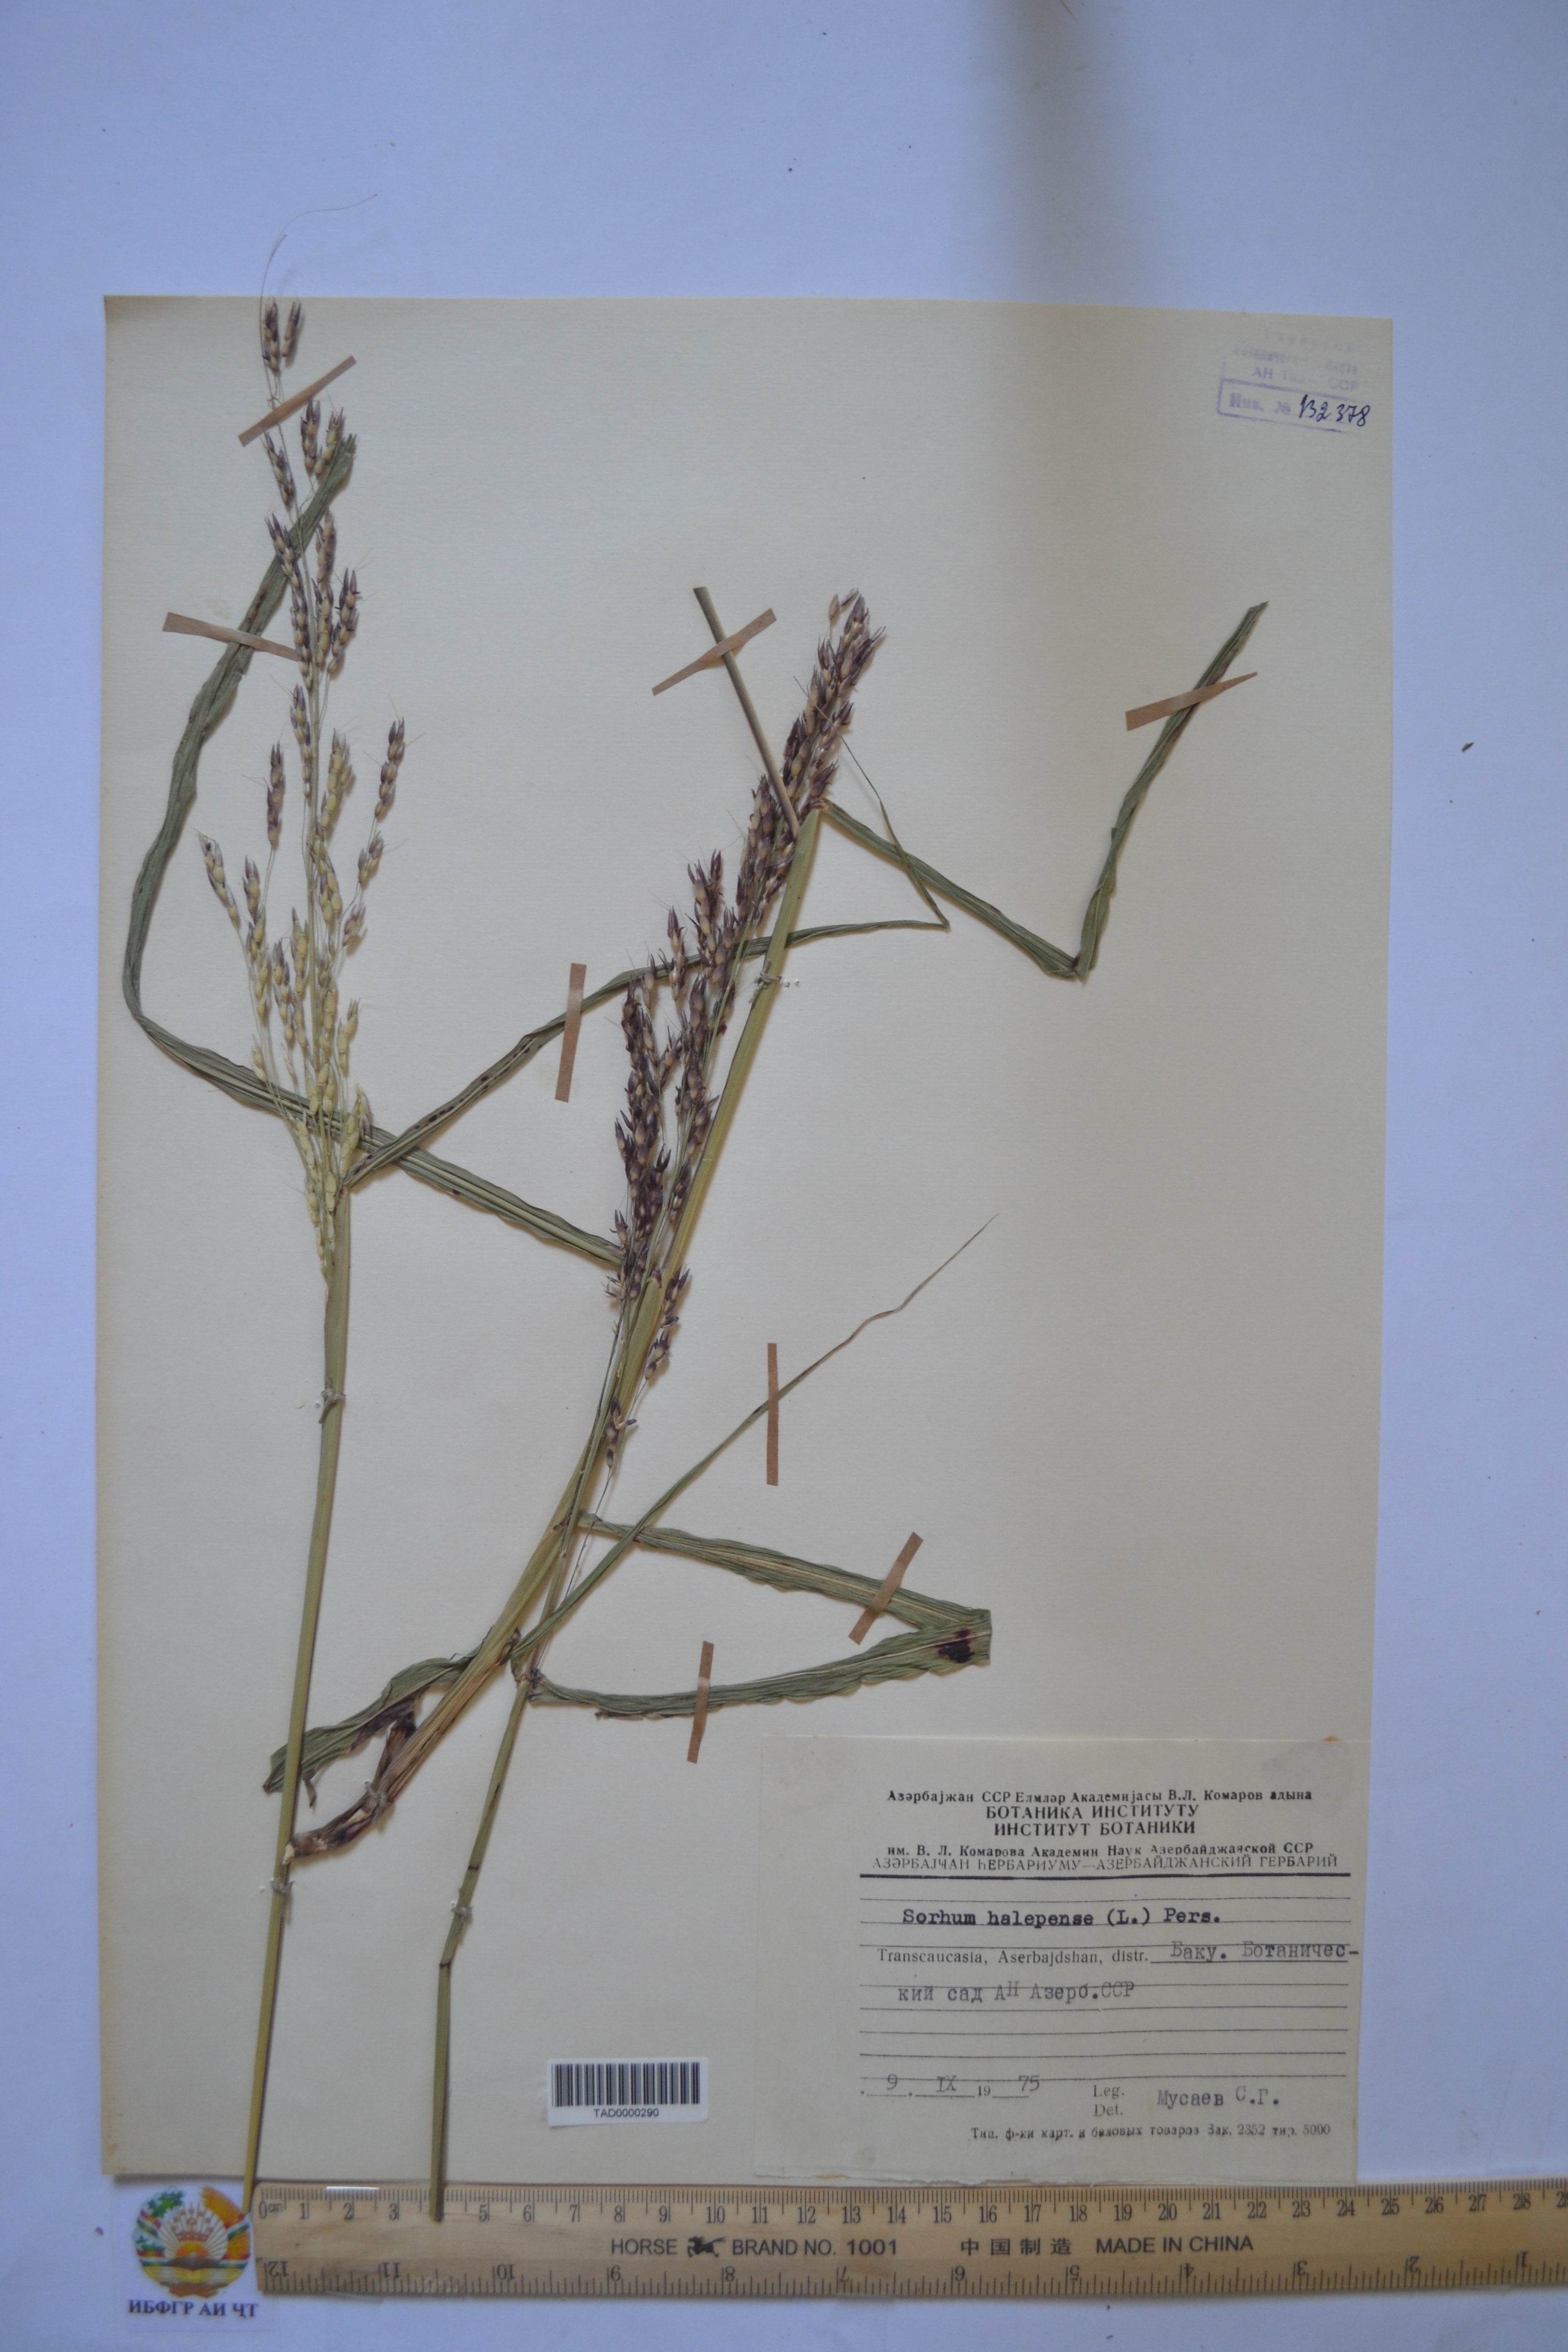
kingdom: Plantae
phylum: Tracheophyta
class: Liliopsida
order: Poales
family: Poaceae
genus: Sorghum
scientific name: Sorghum halepense
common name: Johnson-grass
